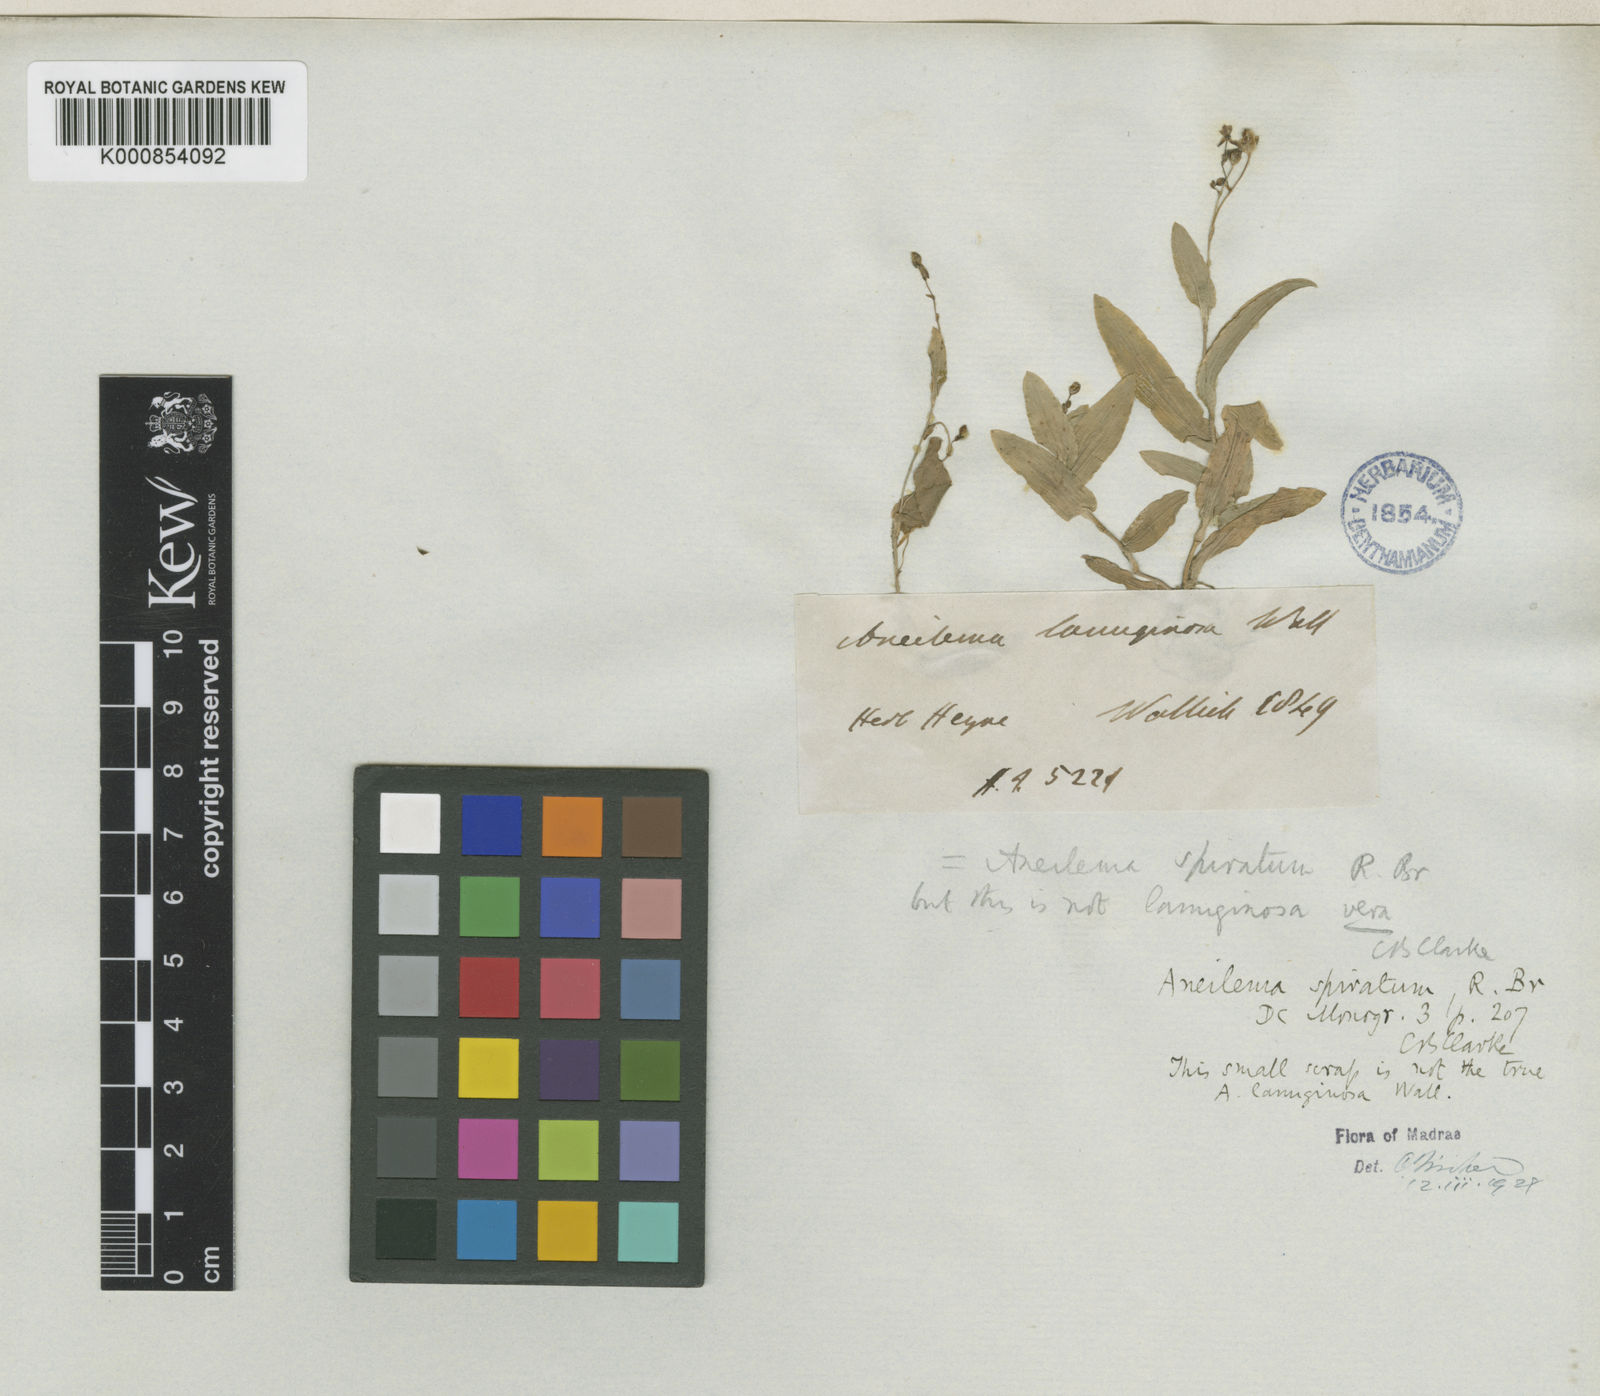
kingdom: Plantae
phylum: Tracheophyta
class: Liliopsida
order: Commelinales
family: Commelinaceae
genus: Murdannia
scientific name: Murdannia
